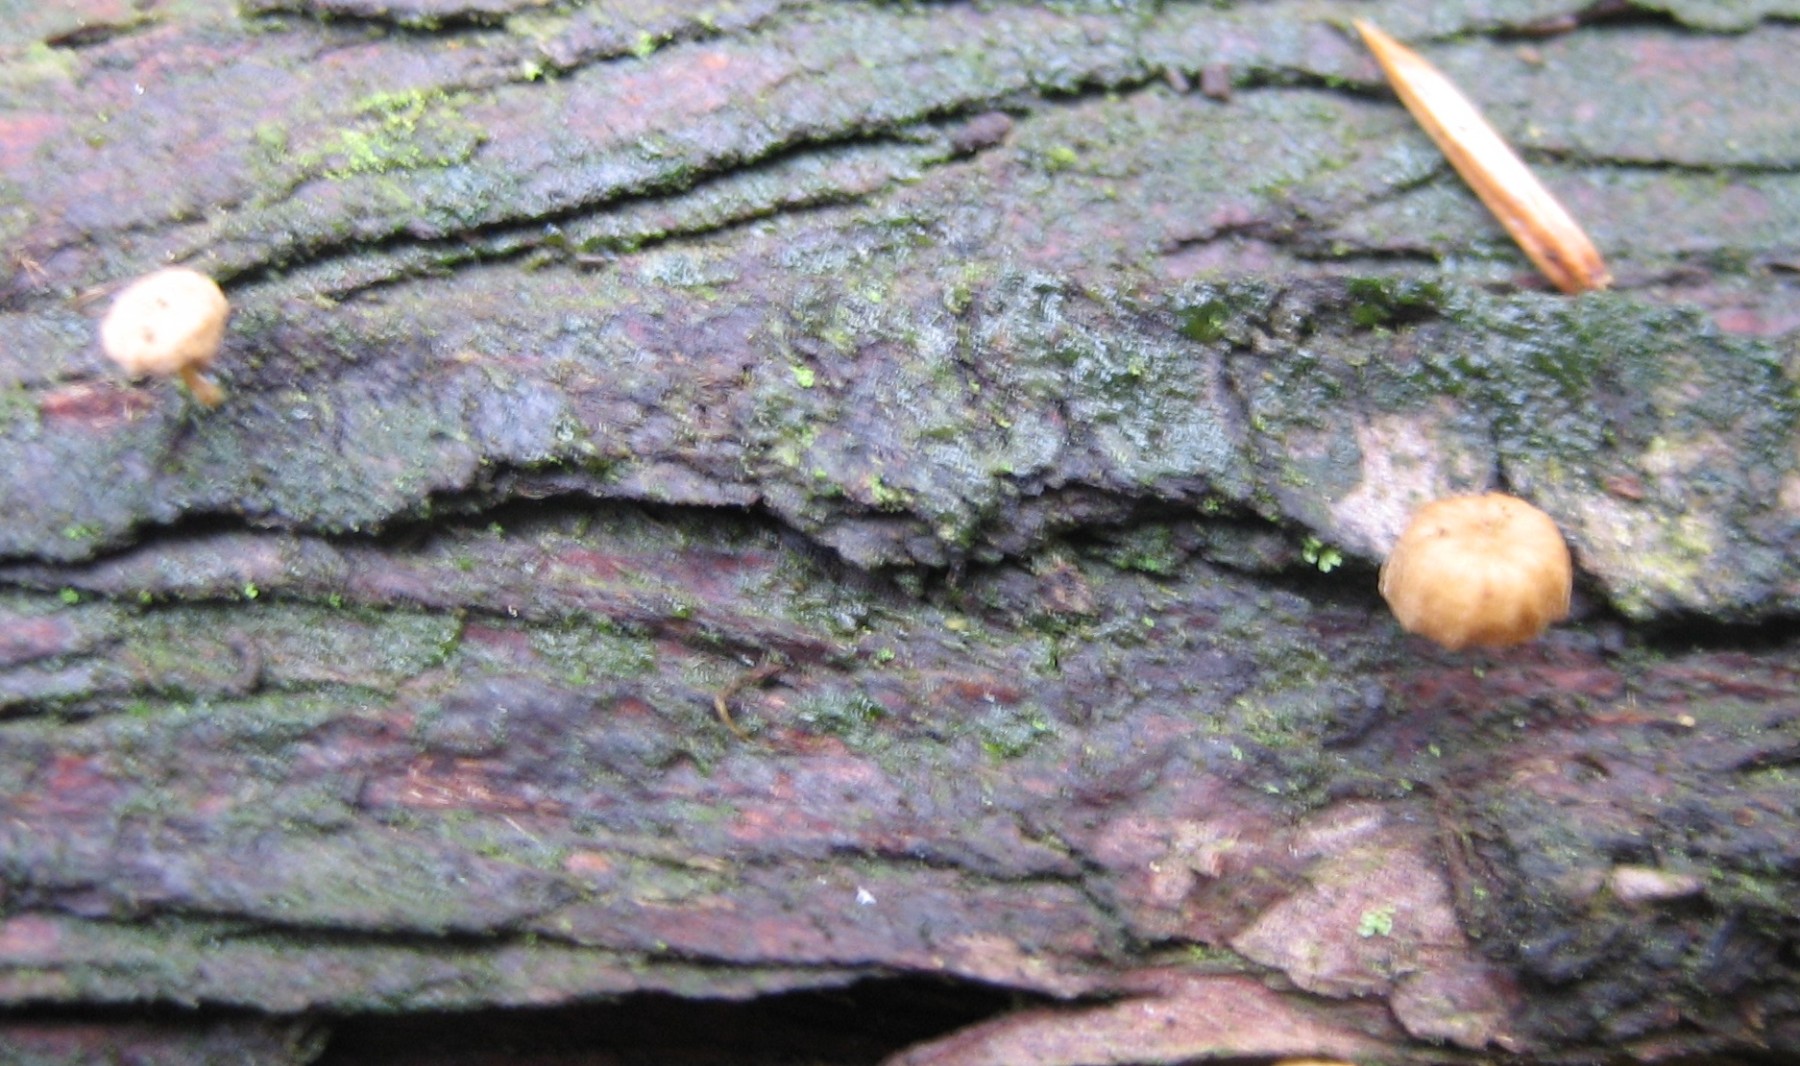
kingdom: Fungi
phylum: Basidiomycota
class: Agaricomycetes
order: Agaricales
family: Mycenaceae
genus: Mycena
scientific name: Mycena juniperina
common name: ene-Huesvamp
